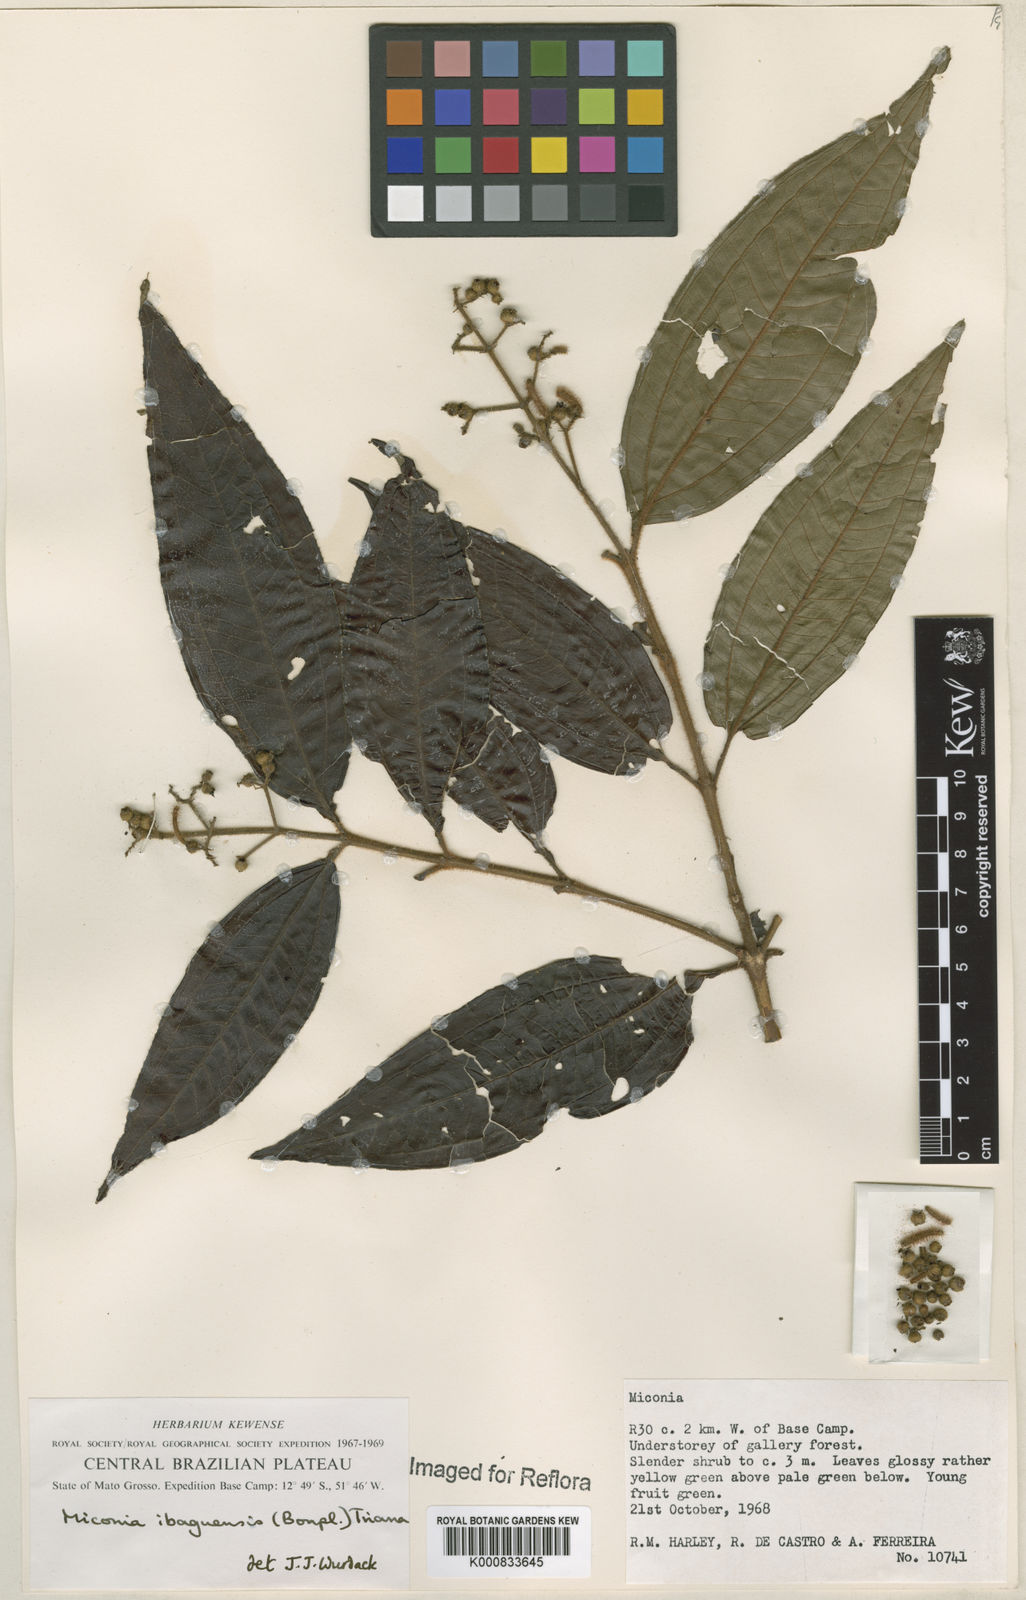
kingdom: Plantae
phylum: Tracheophyta
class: Magnoliopsida
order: Myrtales
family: Melastomataceae
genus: Miconia
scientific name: Miconia ibaguensis
